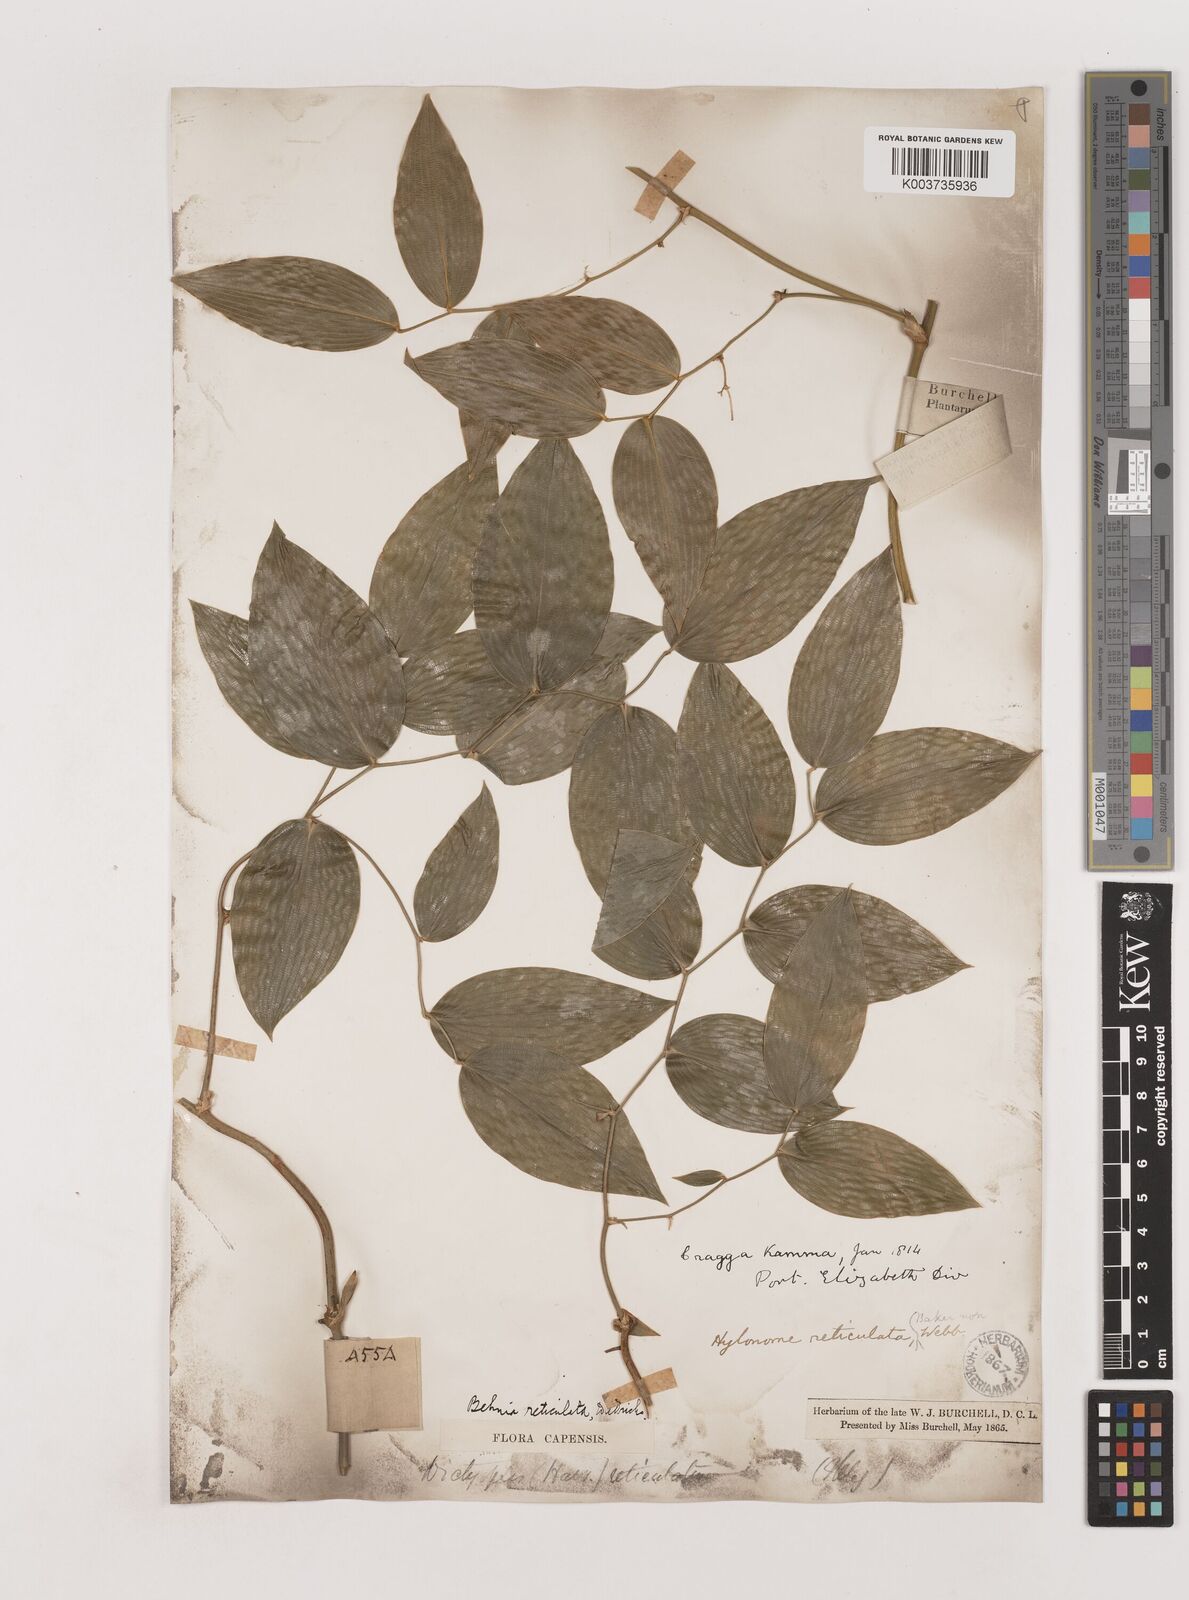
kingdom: Plantae
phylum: Tracheophyta
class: Liliopsida
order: Asparagales
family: Asparagaceae
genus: Behnia
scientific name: Behnia reticulata
